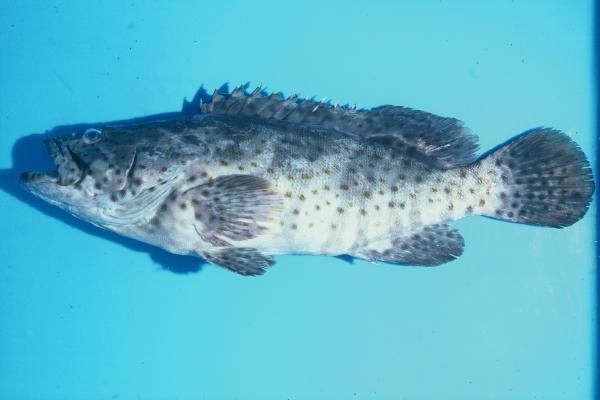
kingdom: Animalia
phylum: Chordata
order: Perciformes
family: Serranidae
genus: Epinephelus
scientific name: Epinephelus coioides
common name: Orange-spotted grouper
